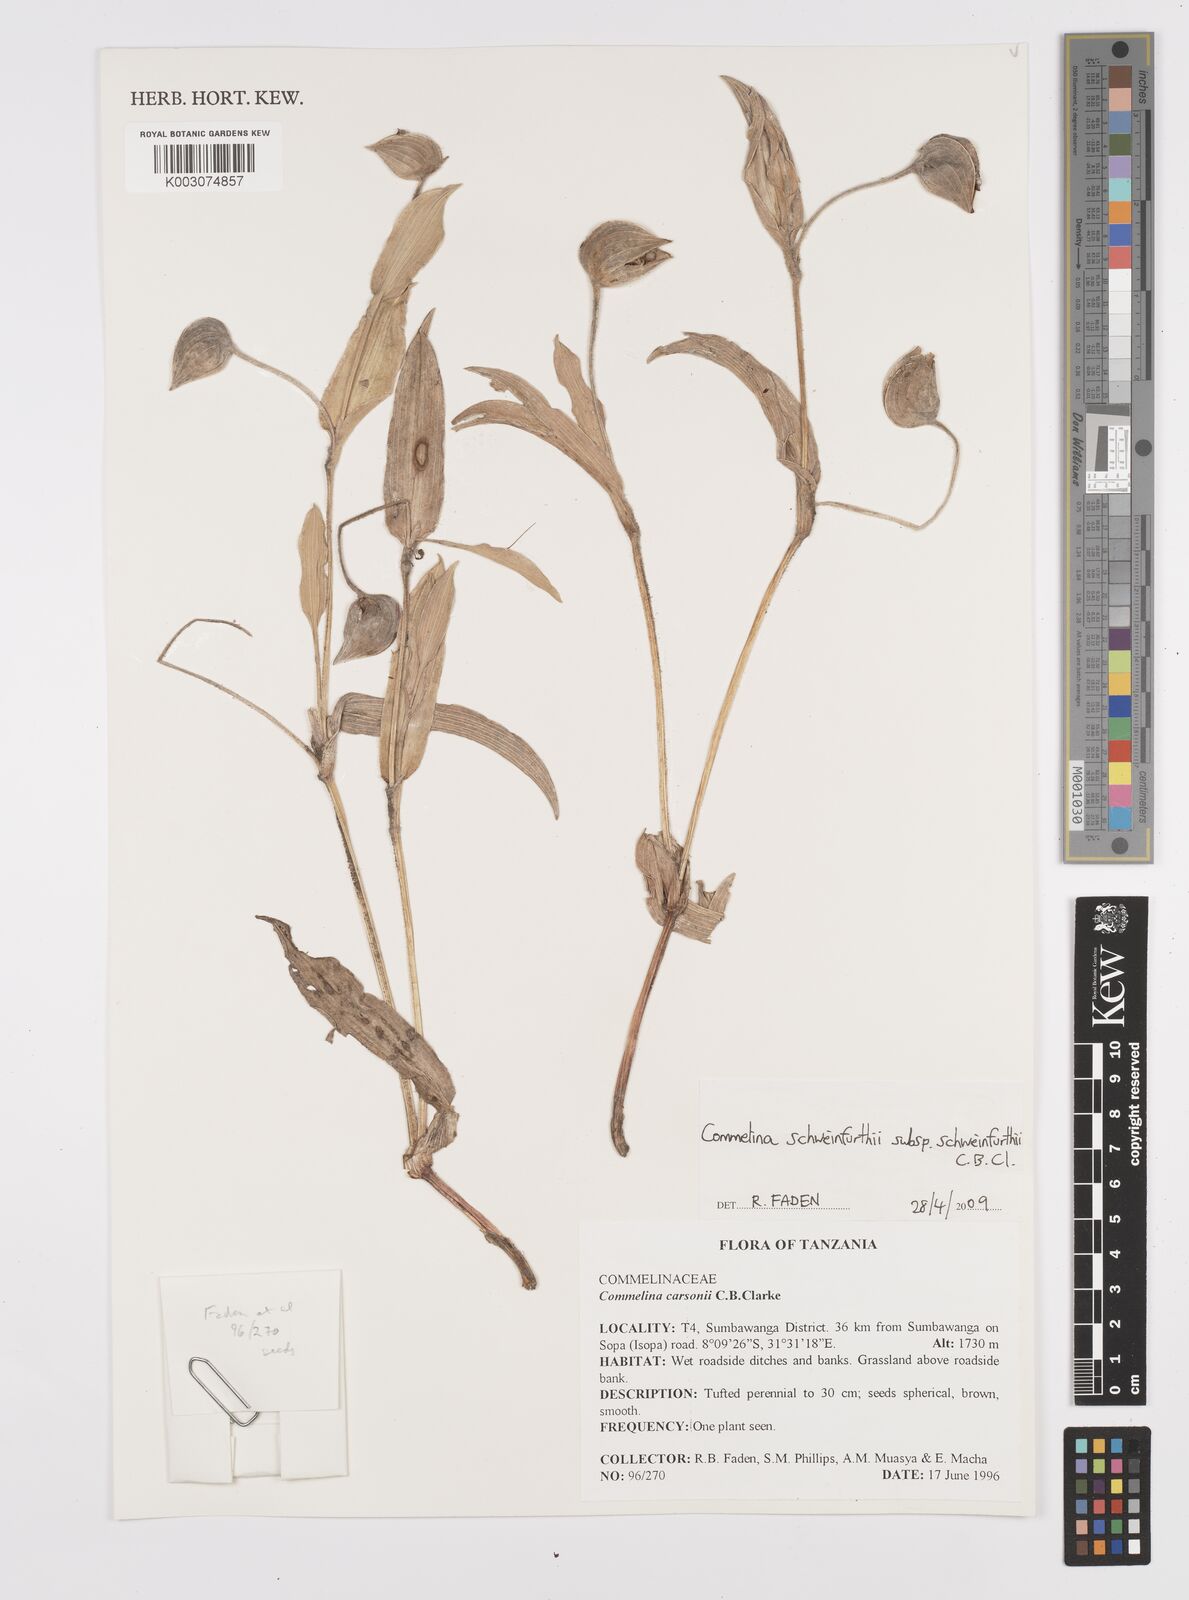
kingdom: Plantae
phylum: Tracheophyta
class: Liliopsida
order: Commelinales
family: Commelinaceae
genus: Commelina
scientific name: Commelina schweinfurthii
